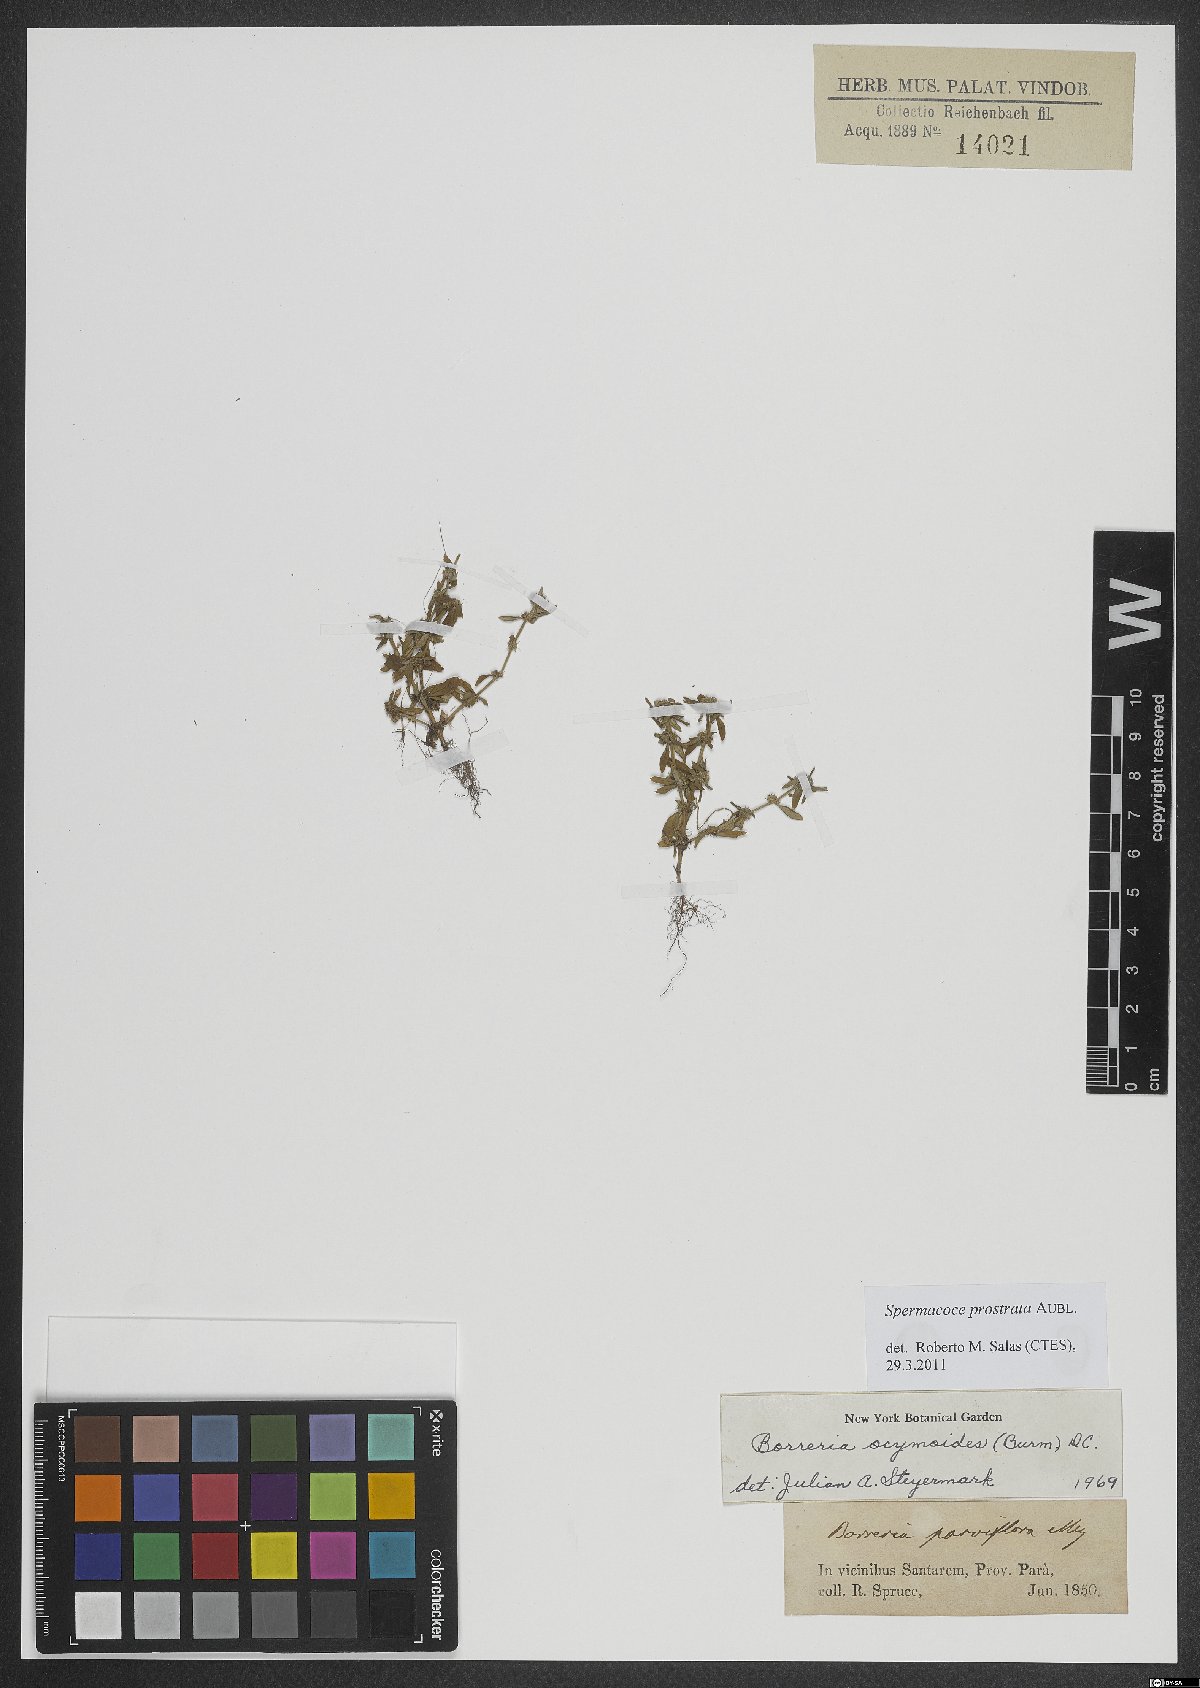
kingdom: Plantae
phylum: Tracheophyta
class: Magnoliopsida
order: Gentianales
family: Rubiaceae
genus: Spermacoce
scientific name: Spermacoce prostrata
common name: Prostrate false buttonweed
